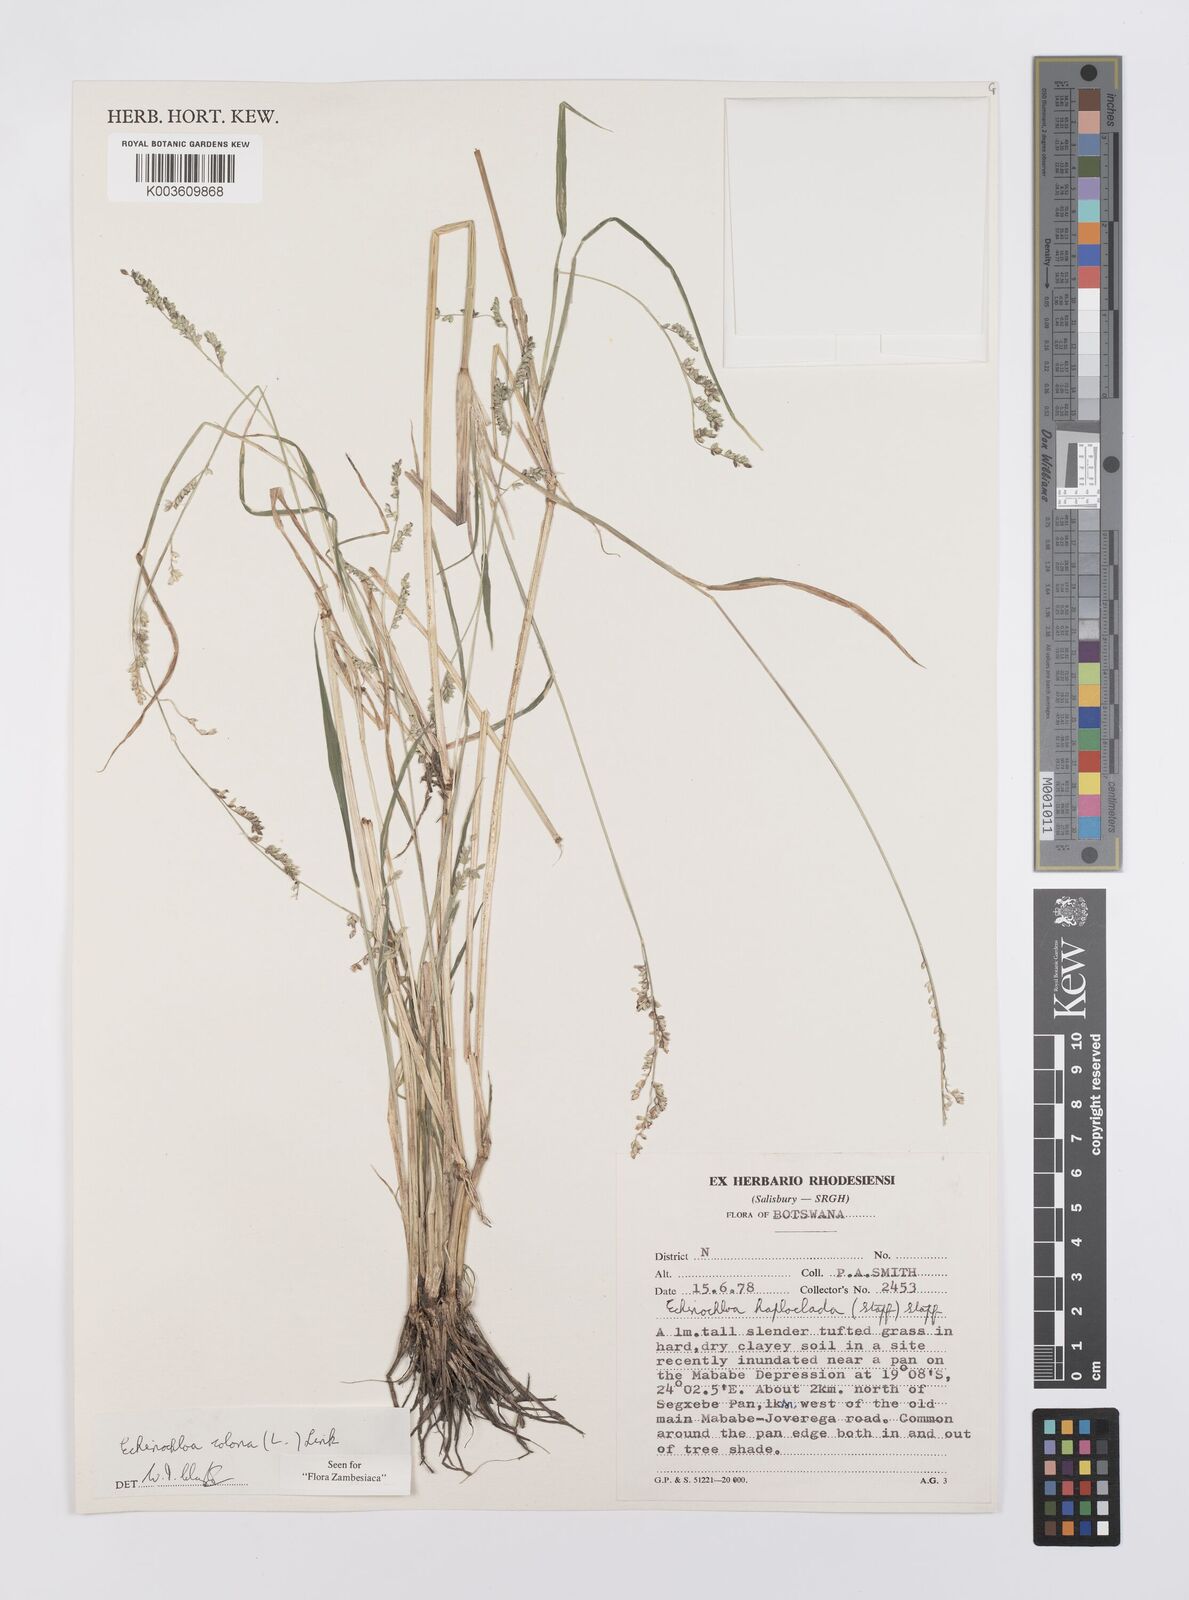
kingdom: Plantae
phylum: Tracheophyta
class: Liliopsida
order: Poales
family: Poaceae
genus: Echinochloa
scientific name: Echinochloa colonum
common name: Jungle rice
